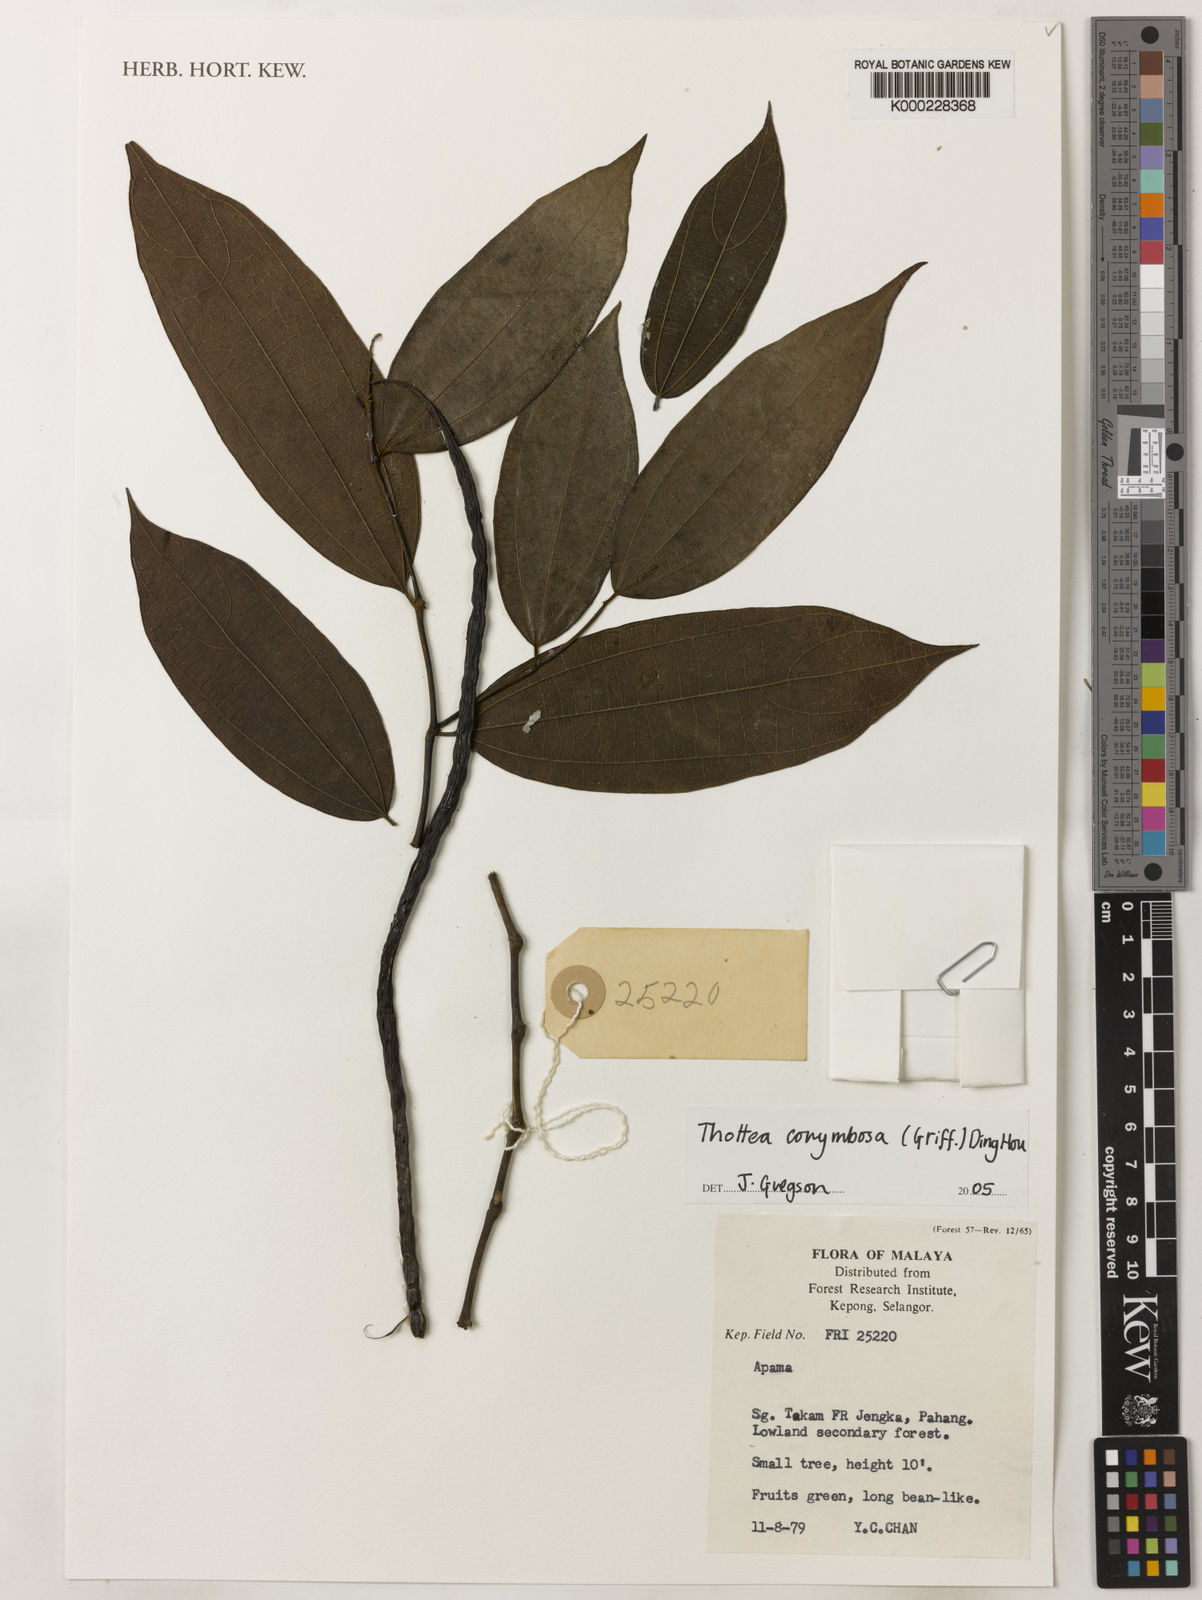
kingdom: Plantae
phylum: Tracheophyta
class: Magnoliopsida
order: Piperales
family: Aristolochiaceae
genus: Thottea
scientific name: Thottea
